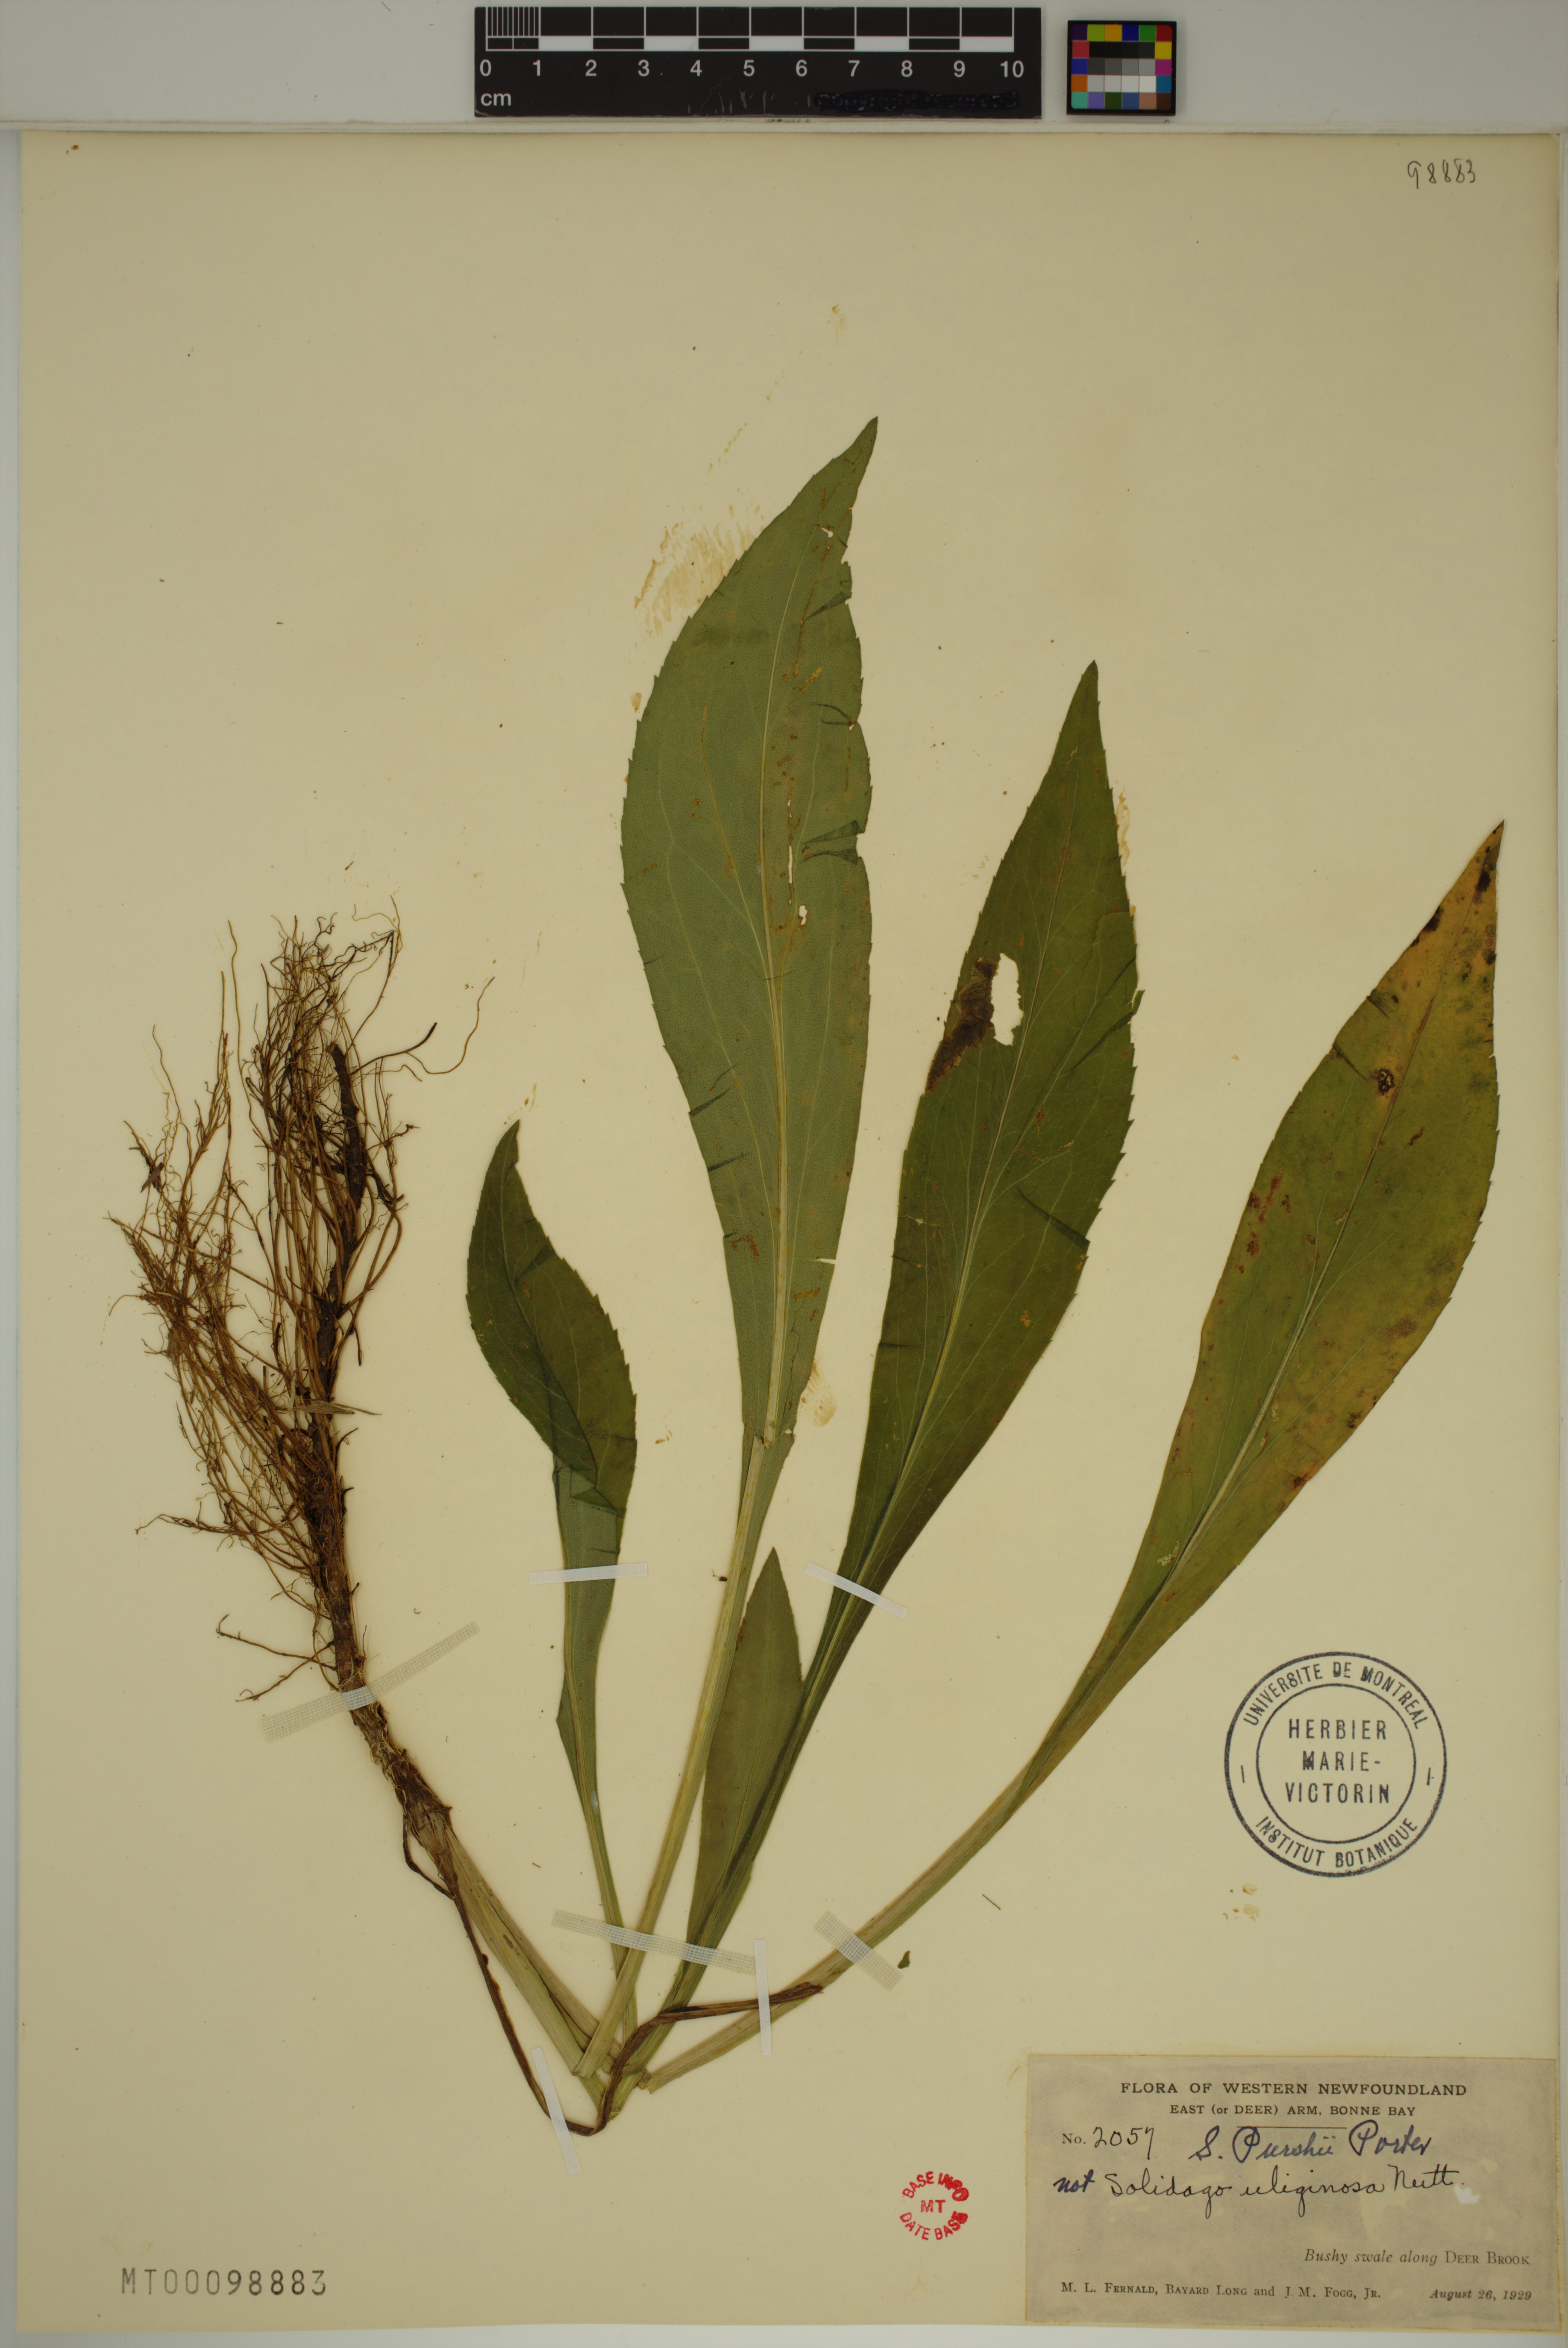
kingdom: Plantae
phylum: Tracheophyta
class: Magnoliopsida
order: Asterales
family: Asteraceae
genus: Solidago
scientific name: Solidago uliginosa
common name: Bog goldenrod
